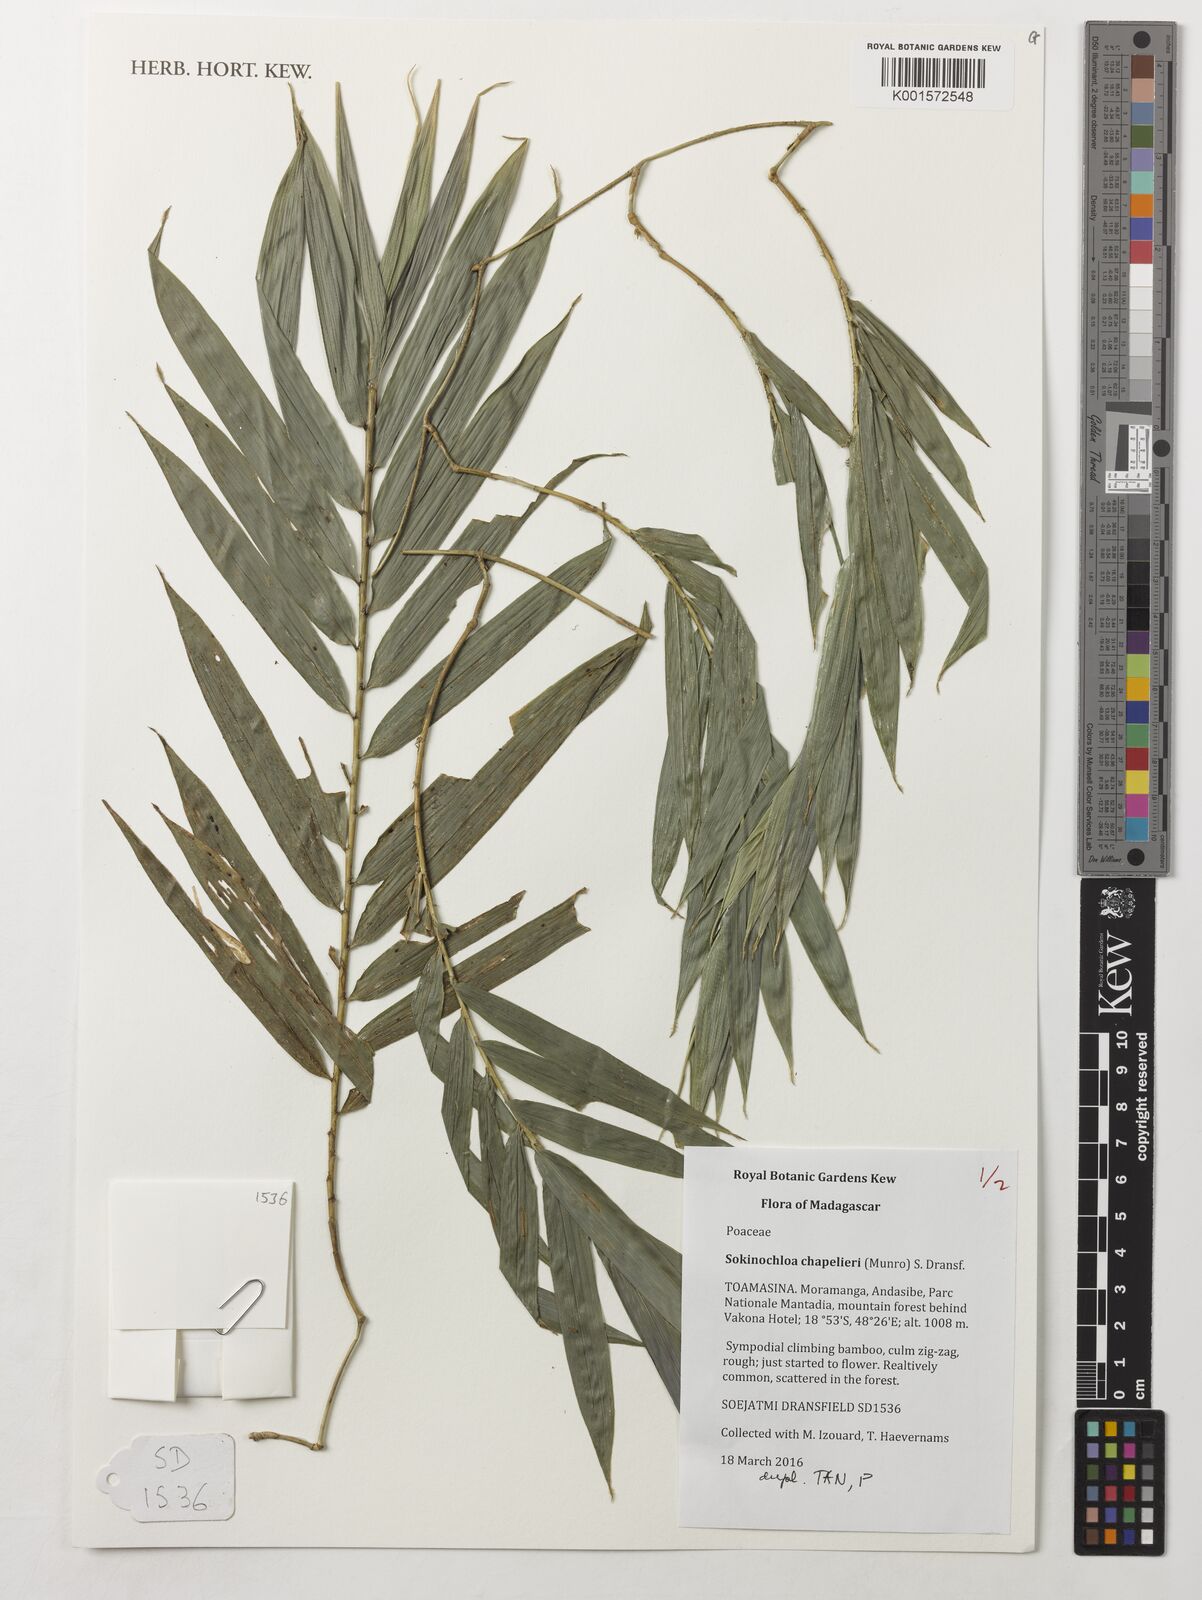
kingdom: Plantae
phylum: Tracheophyta
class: Liliopsida
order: Poales
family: Poaceae
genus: Sokinochloa
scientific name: Sokinochloa chapelieri
